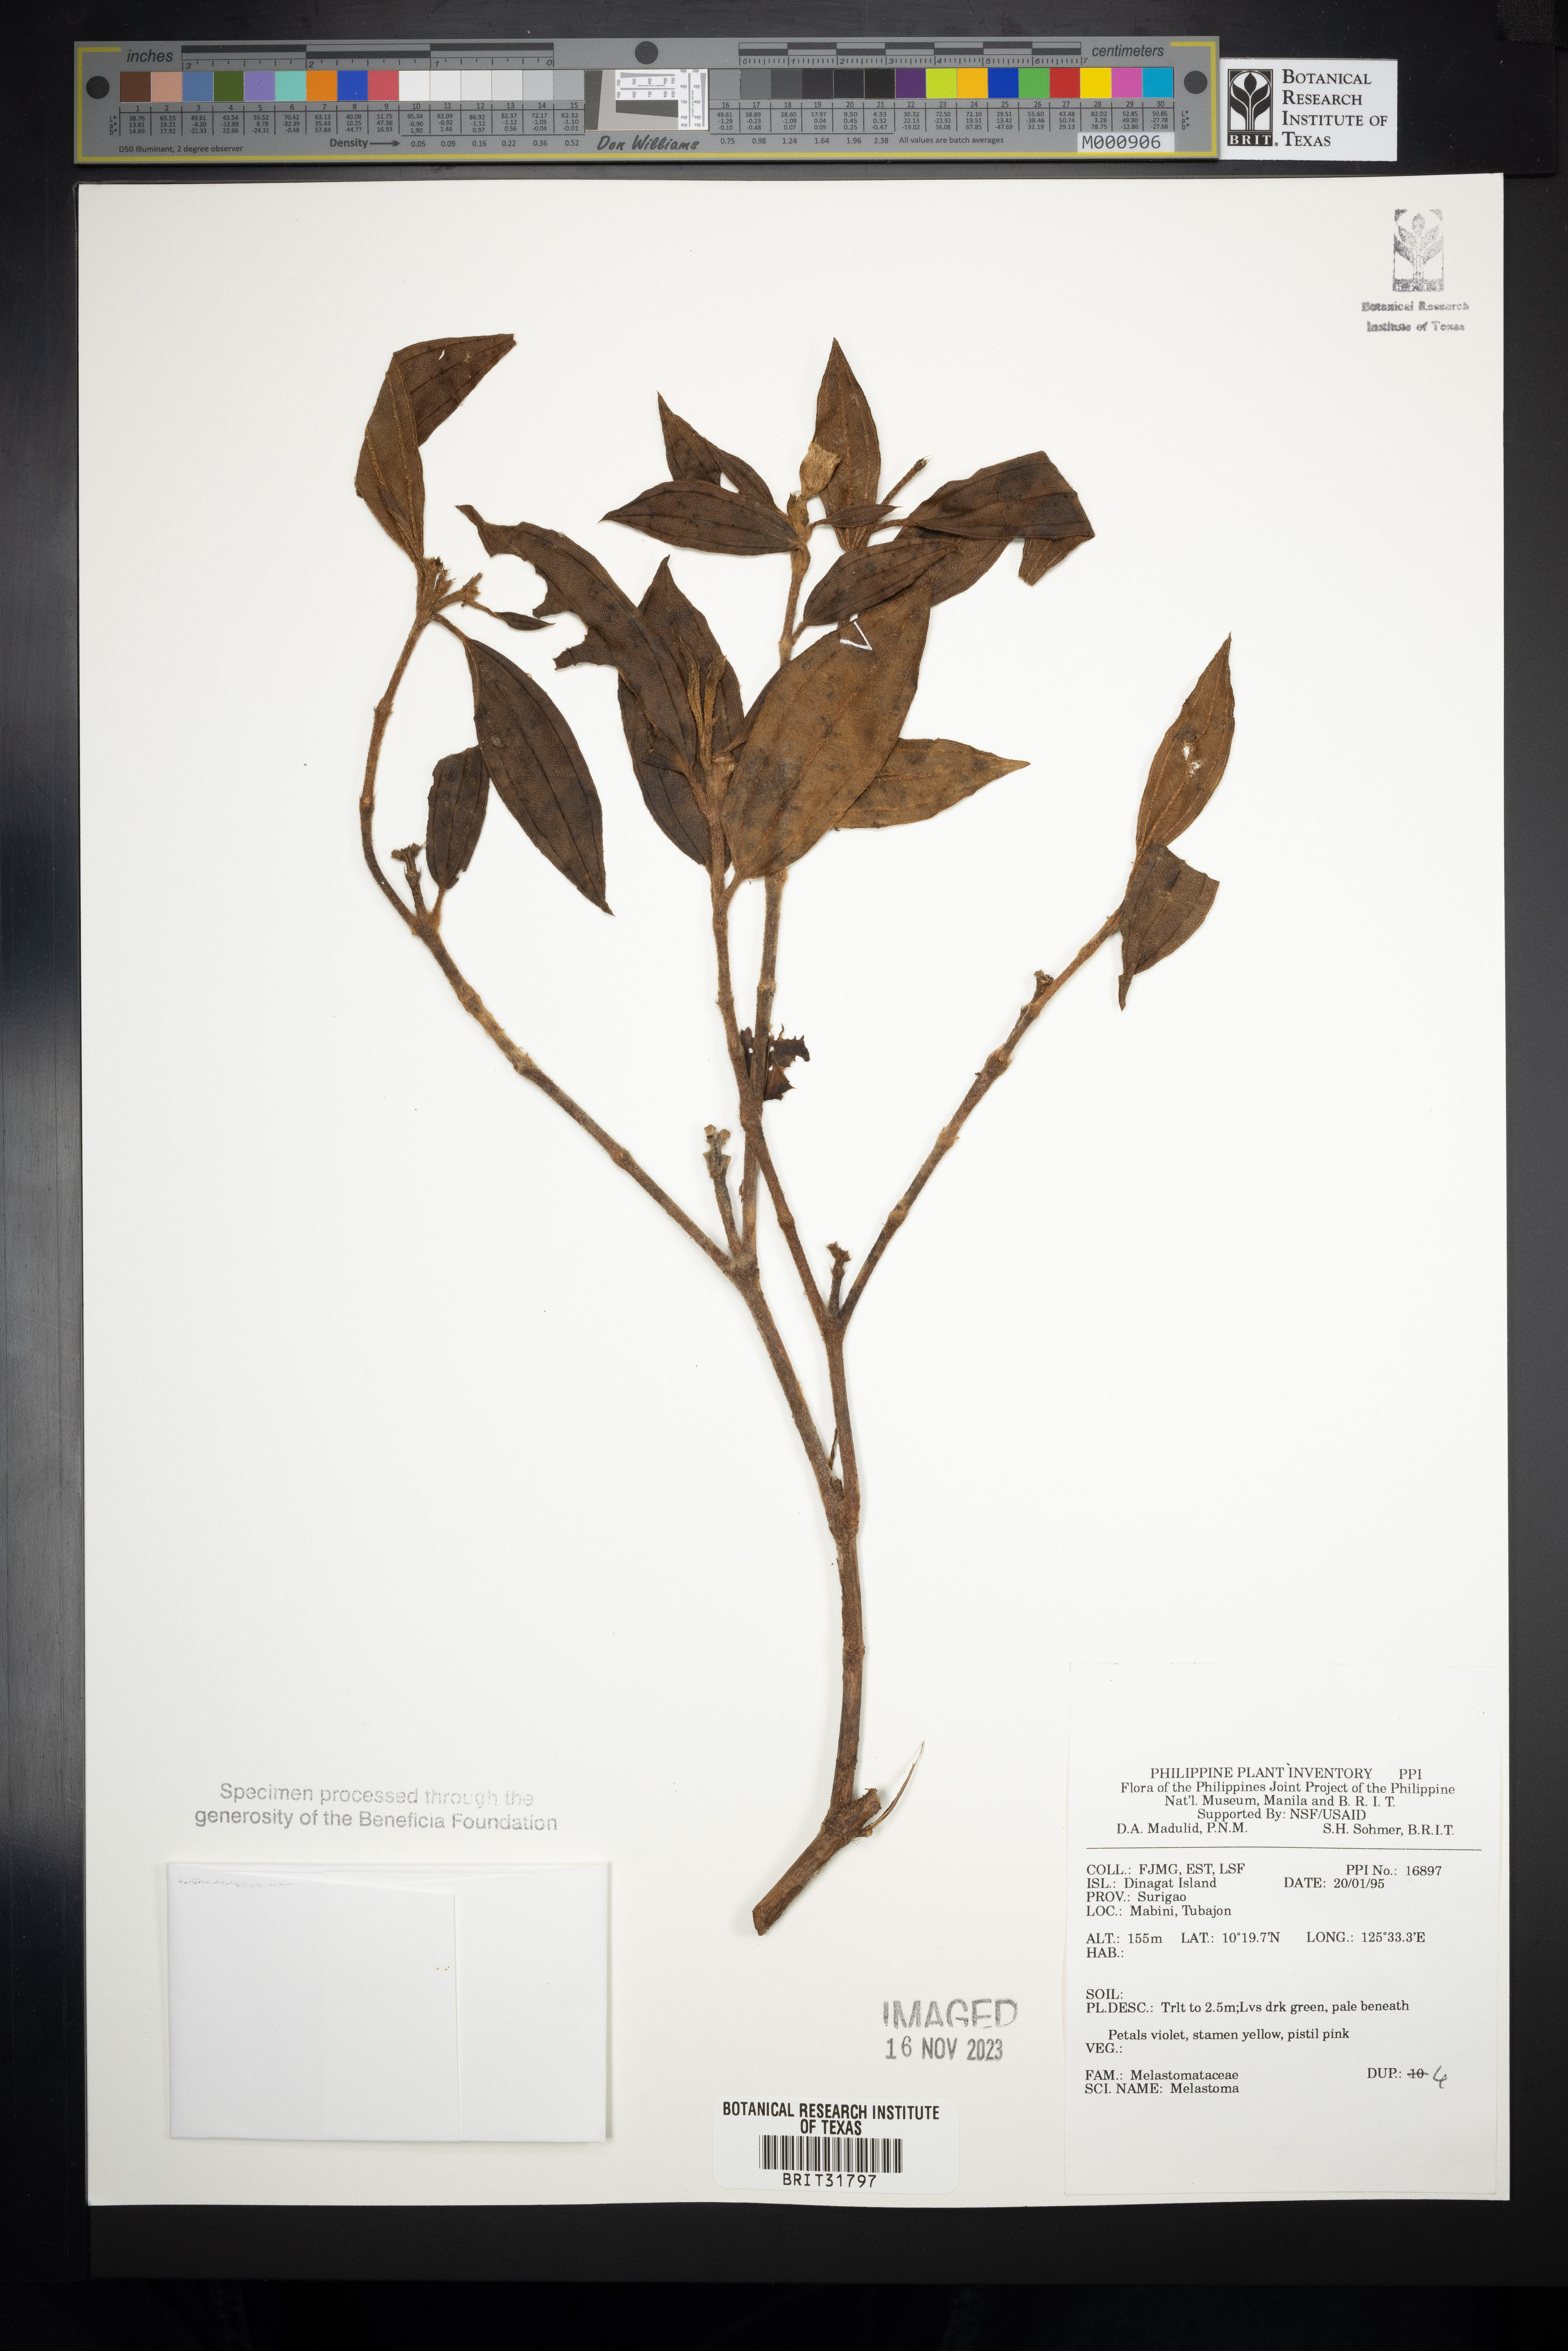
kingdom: Plantae
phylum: Tracheophyta
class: Magnoliopsida
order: Myrtales
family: Melastomataceae
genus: Melastoma
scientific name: Melastoma
